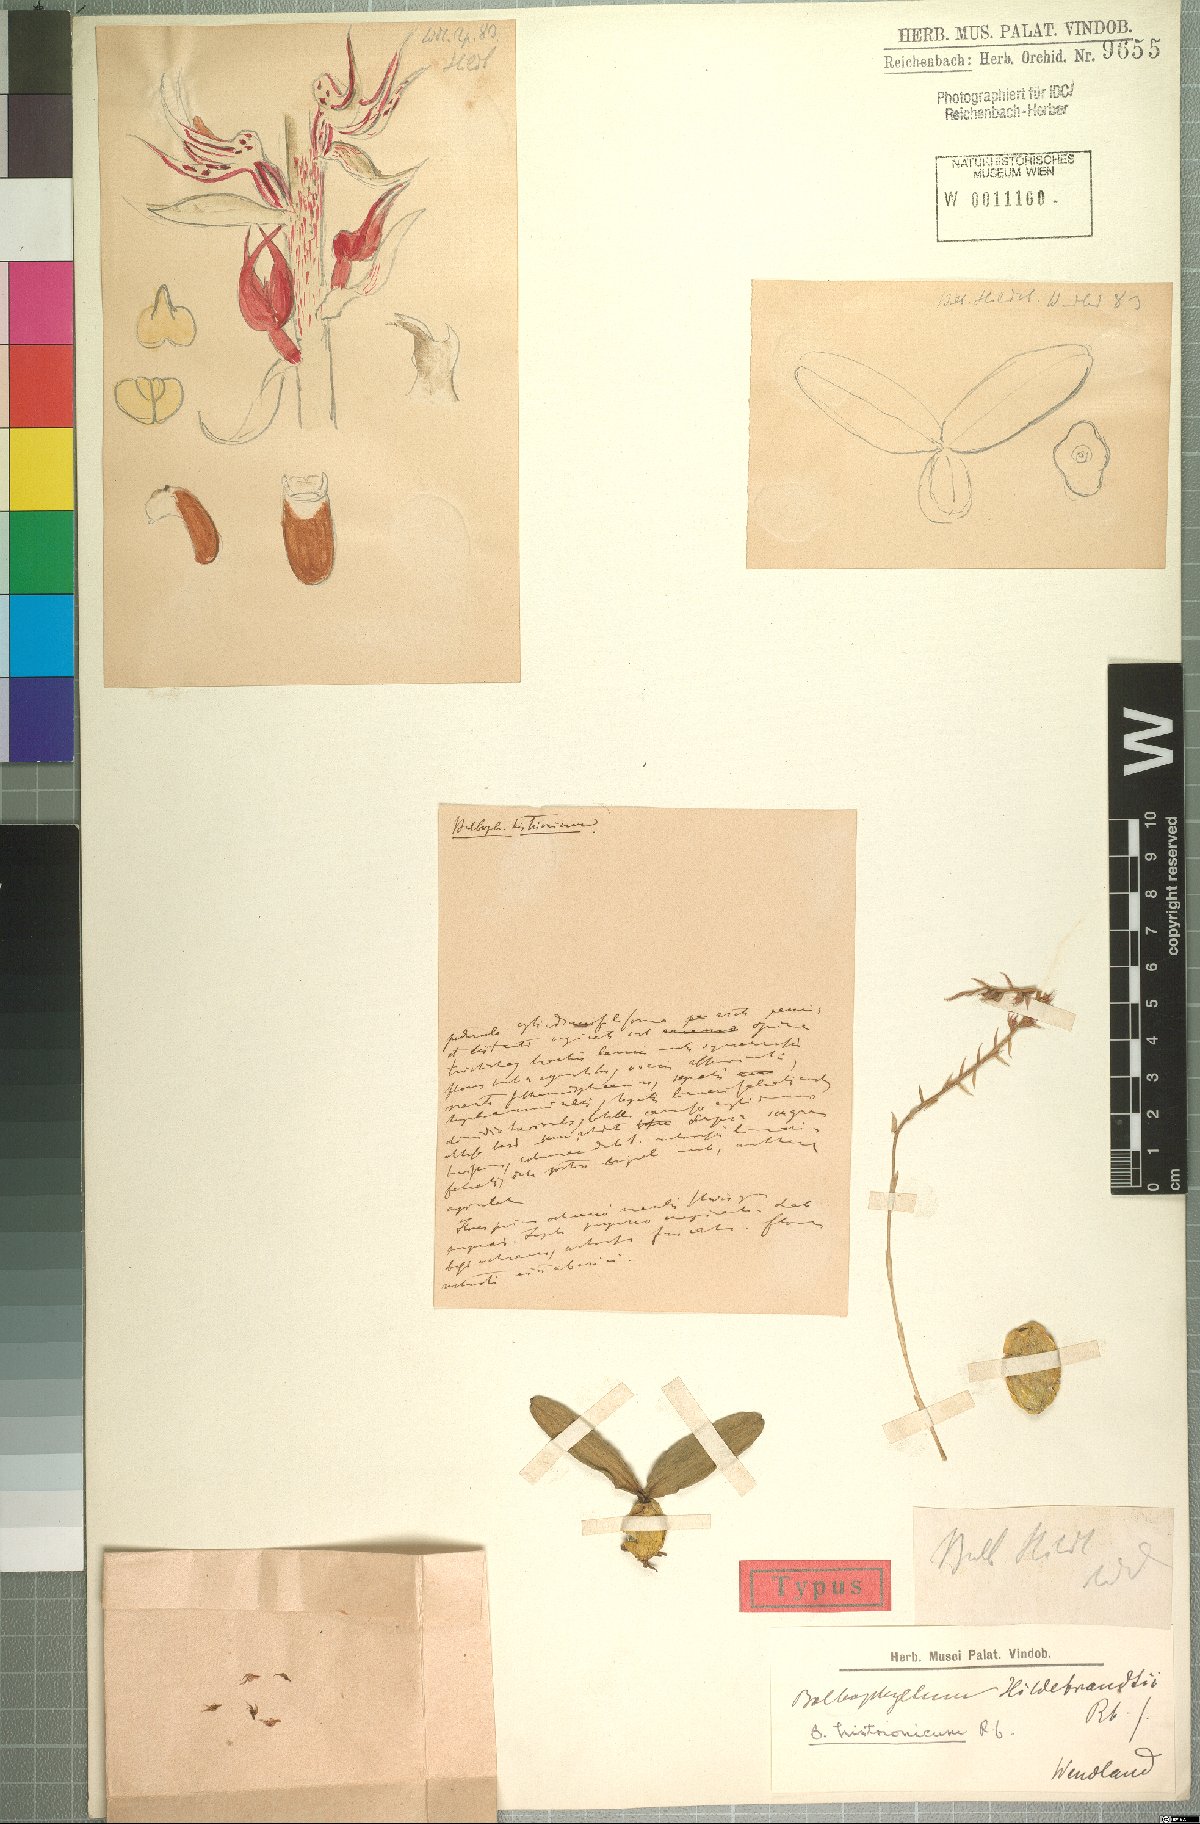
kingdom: Plantae
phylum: Tracheophyta
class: Liliopsida
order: Asparagales
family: Orchidaceae
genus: Bulbophyllum
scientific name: Bulbophyllum histrionicum
